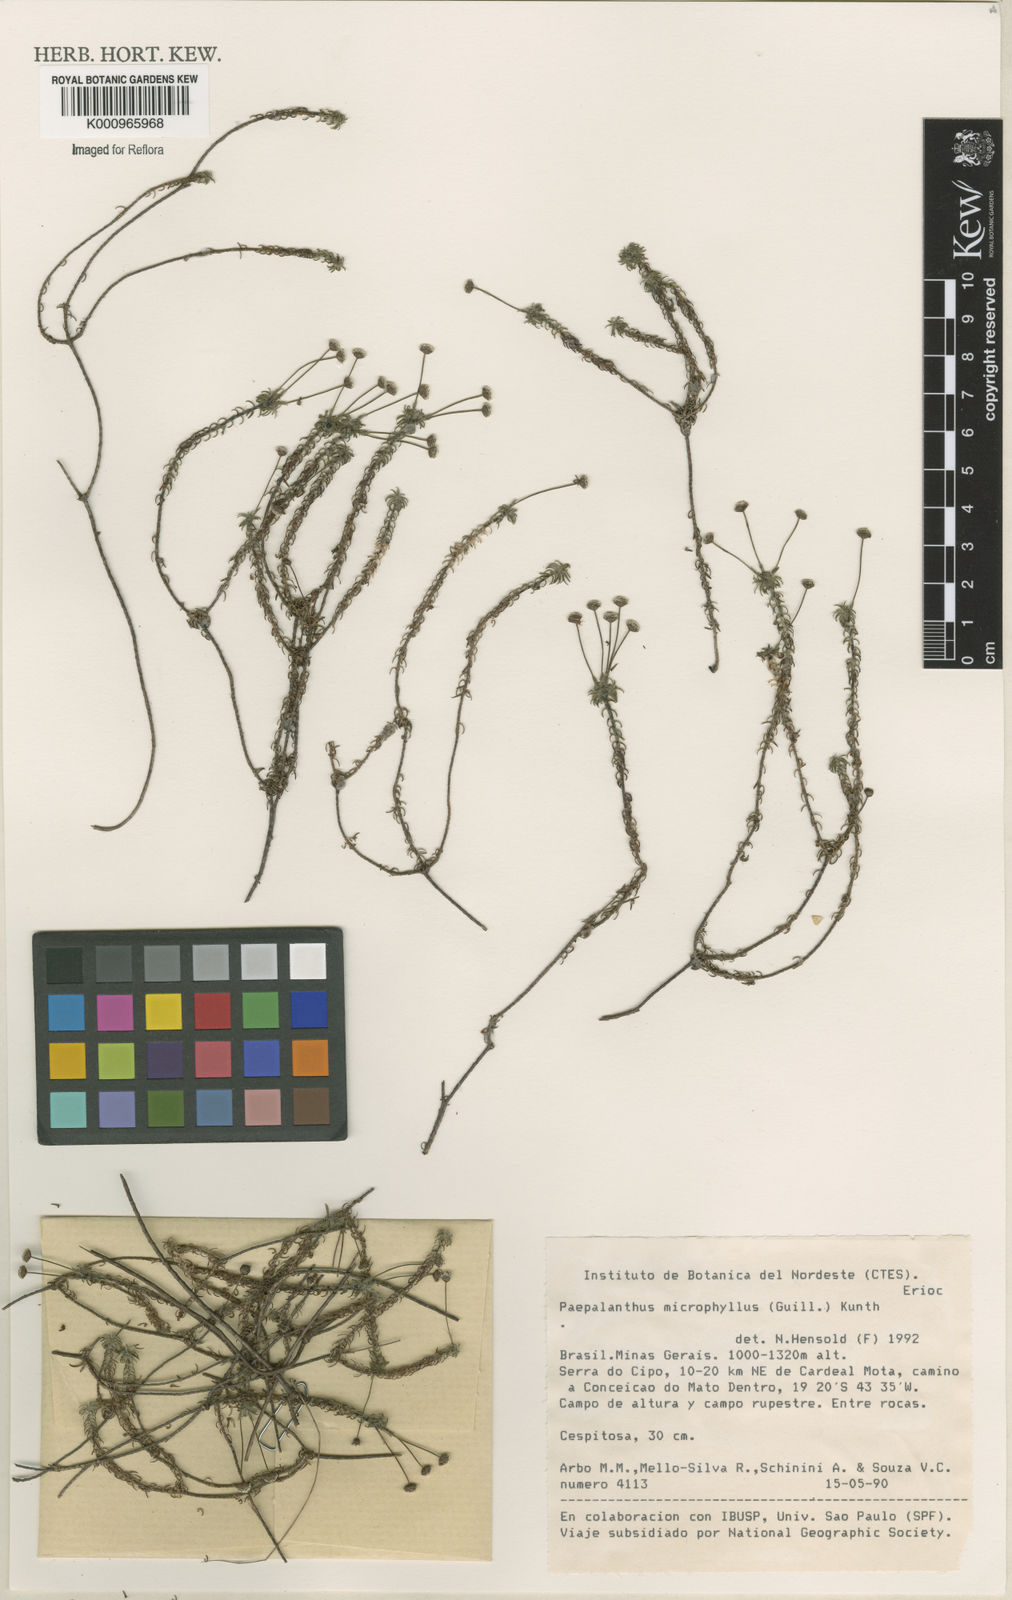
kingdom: Plantae
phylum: Tracheophyta
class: Liliopsida
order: Poales
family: Eriocaulaceae
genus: Paepalanthus
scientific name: Paepalanthus dasynema
